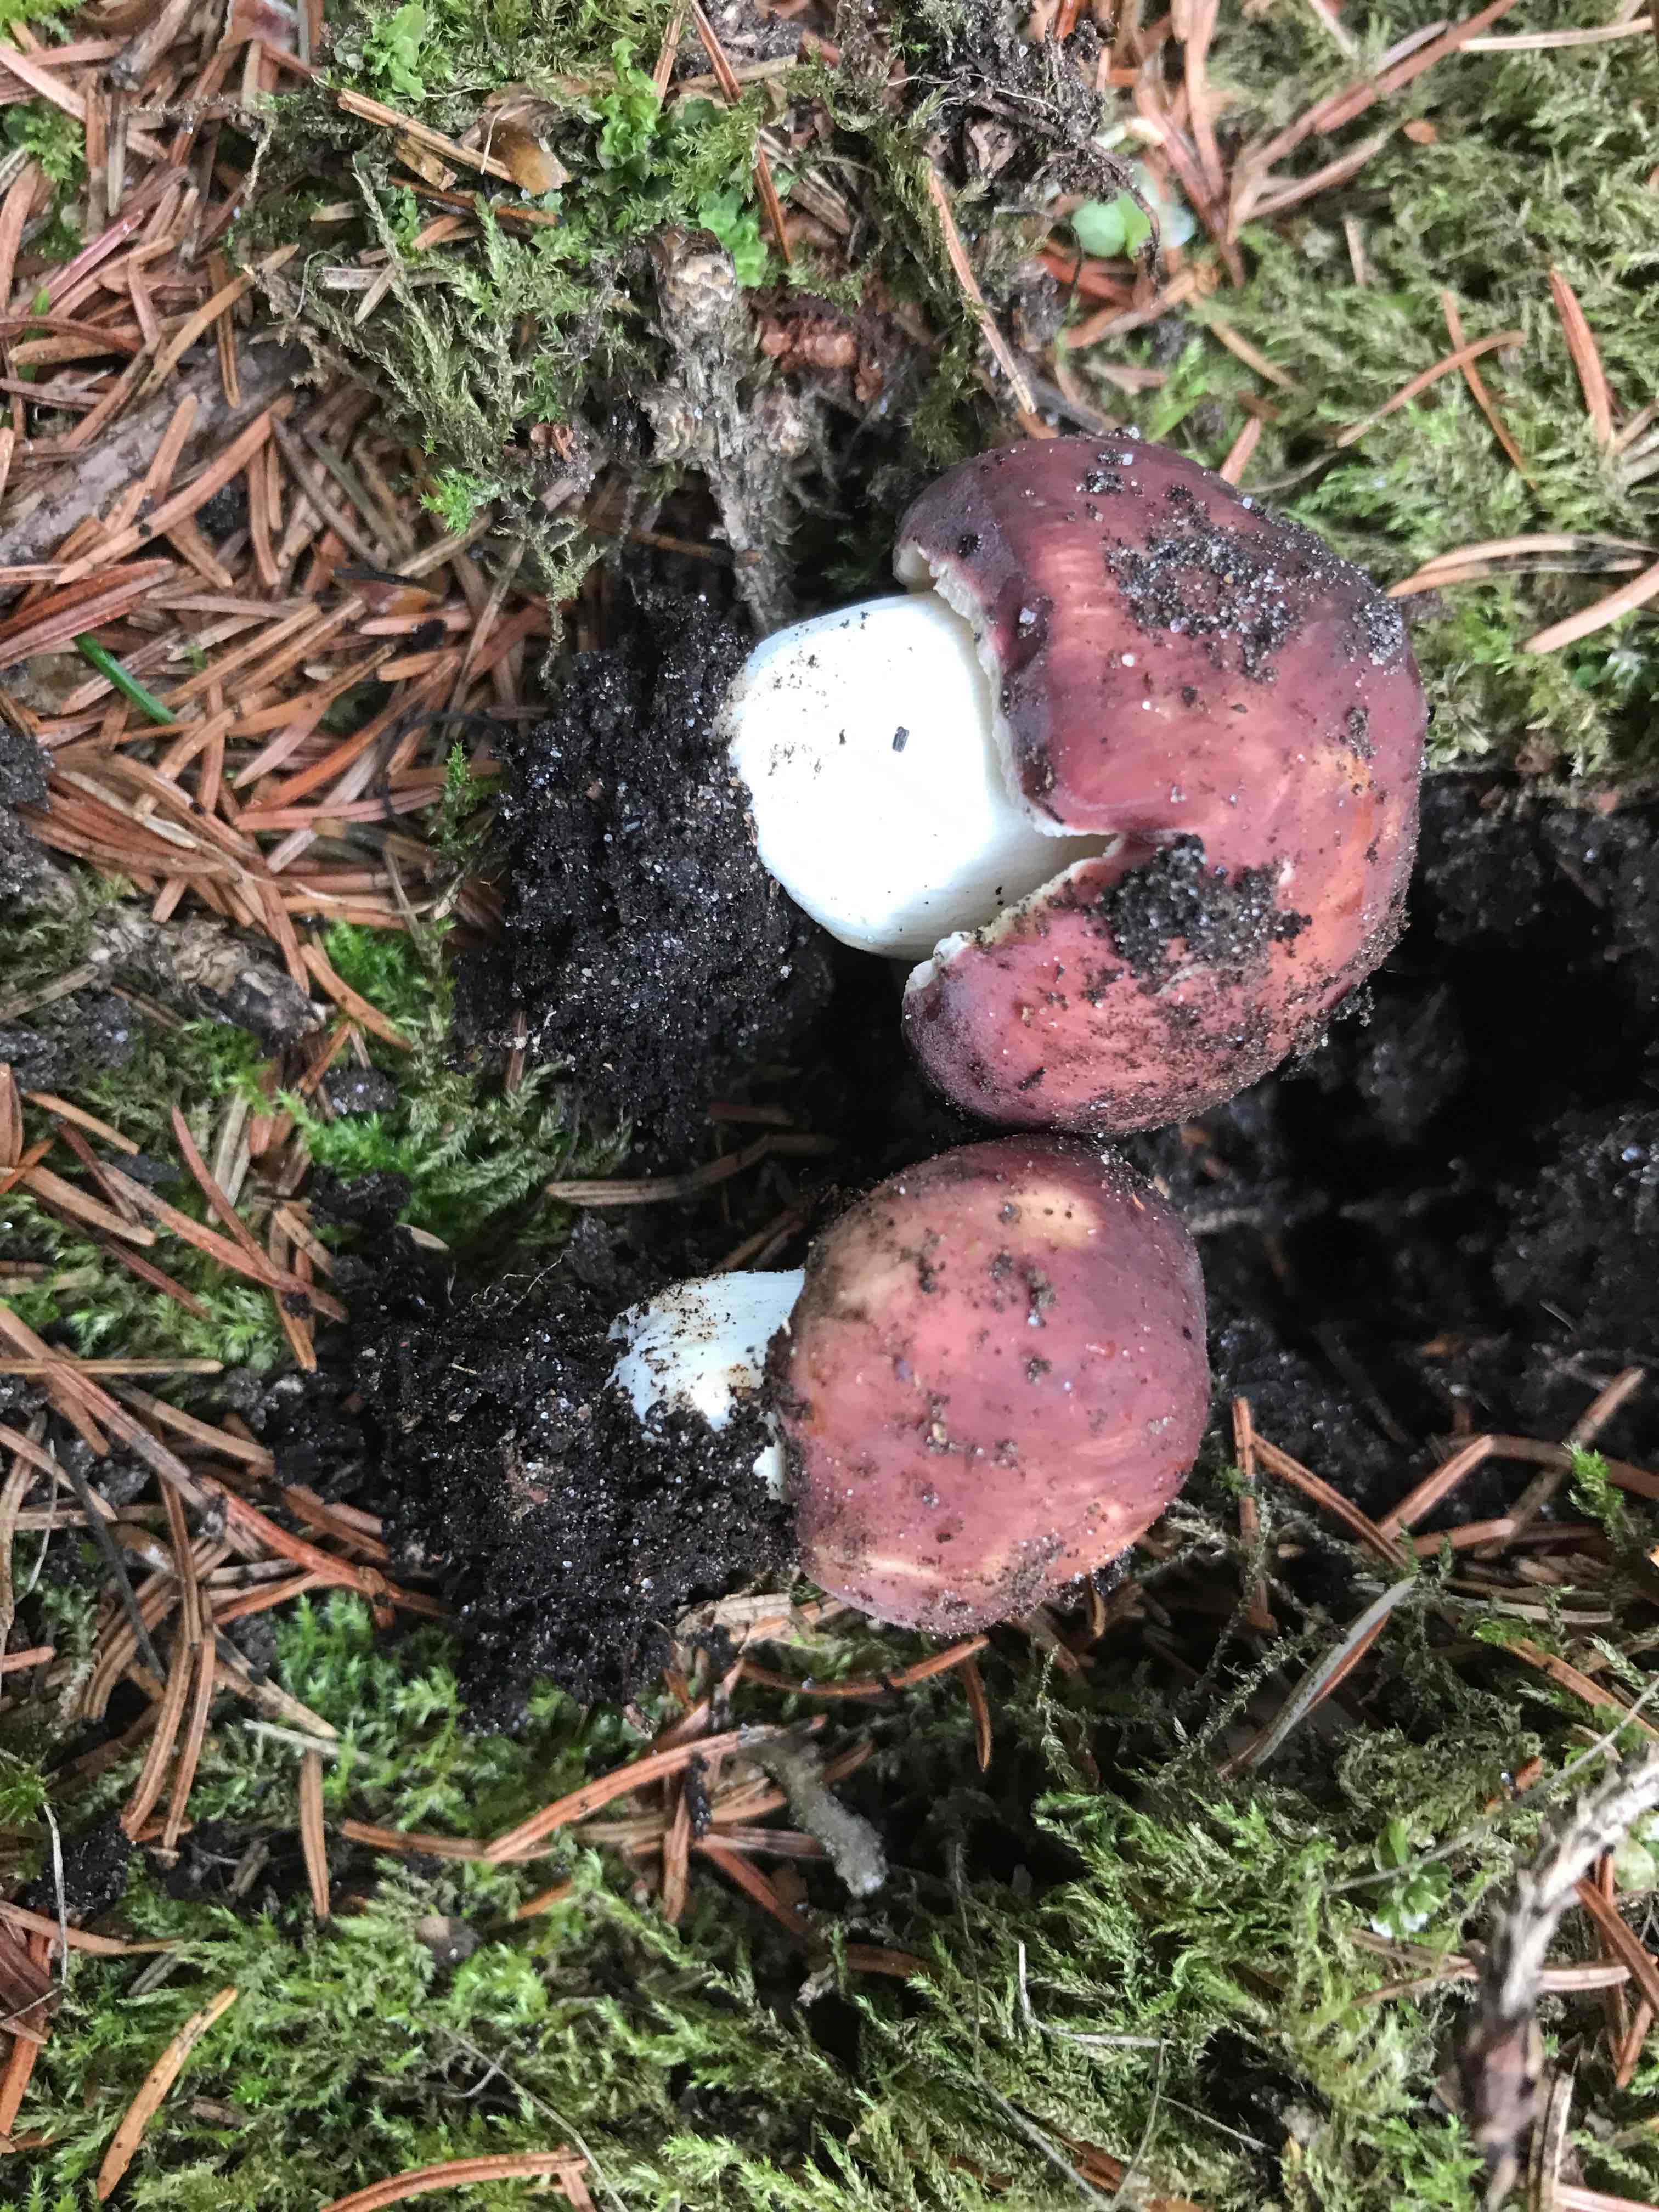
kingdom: Fungi
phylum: Basidiomycota
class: Agaricomycetes
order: Russulales
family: Russulaceae
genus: Russula
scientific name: Russula vesca
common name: spiselig skørhat
